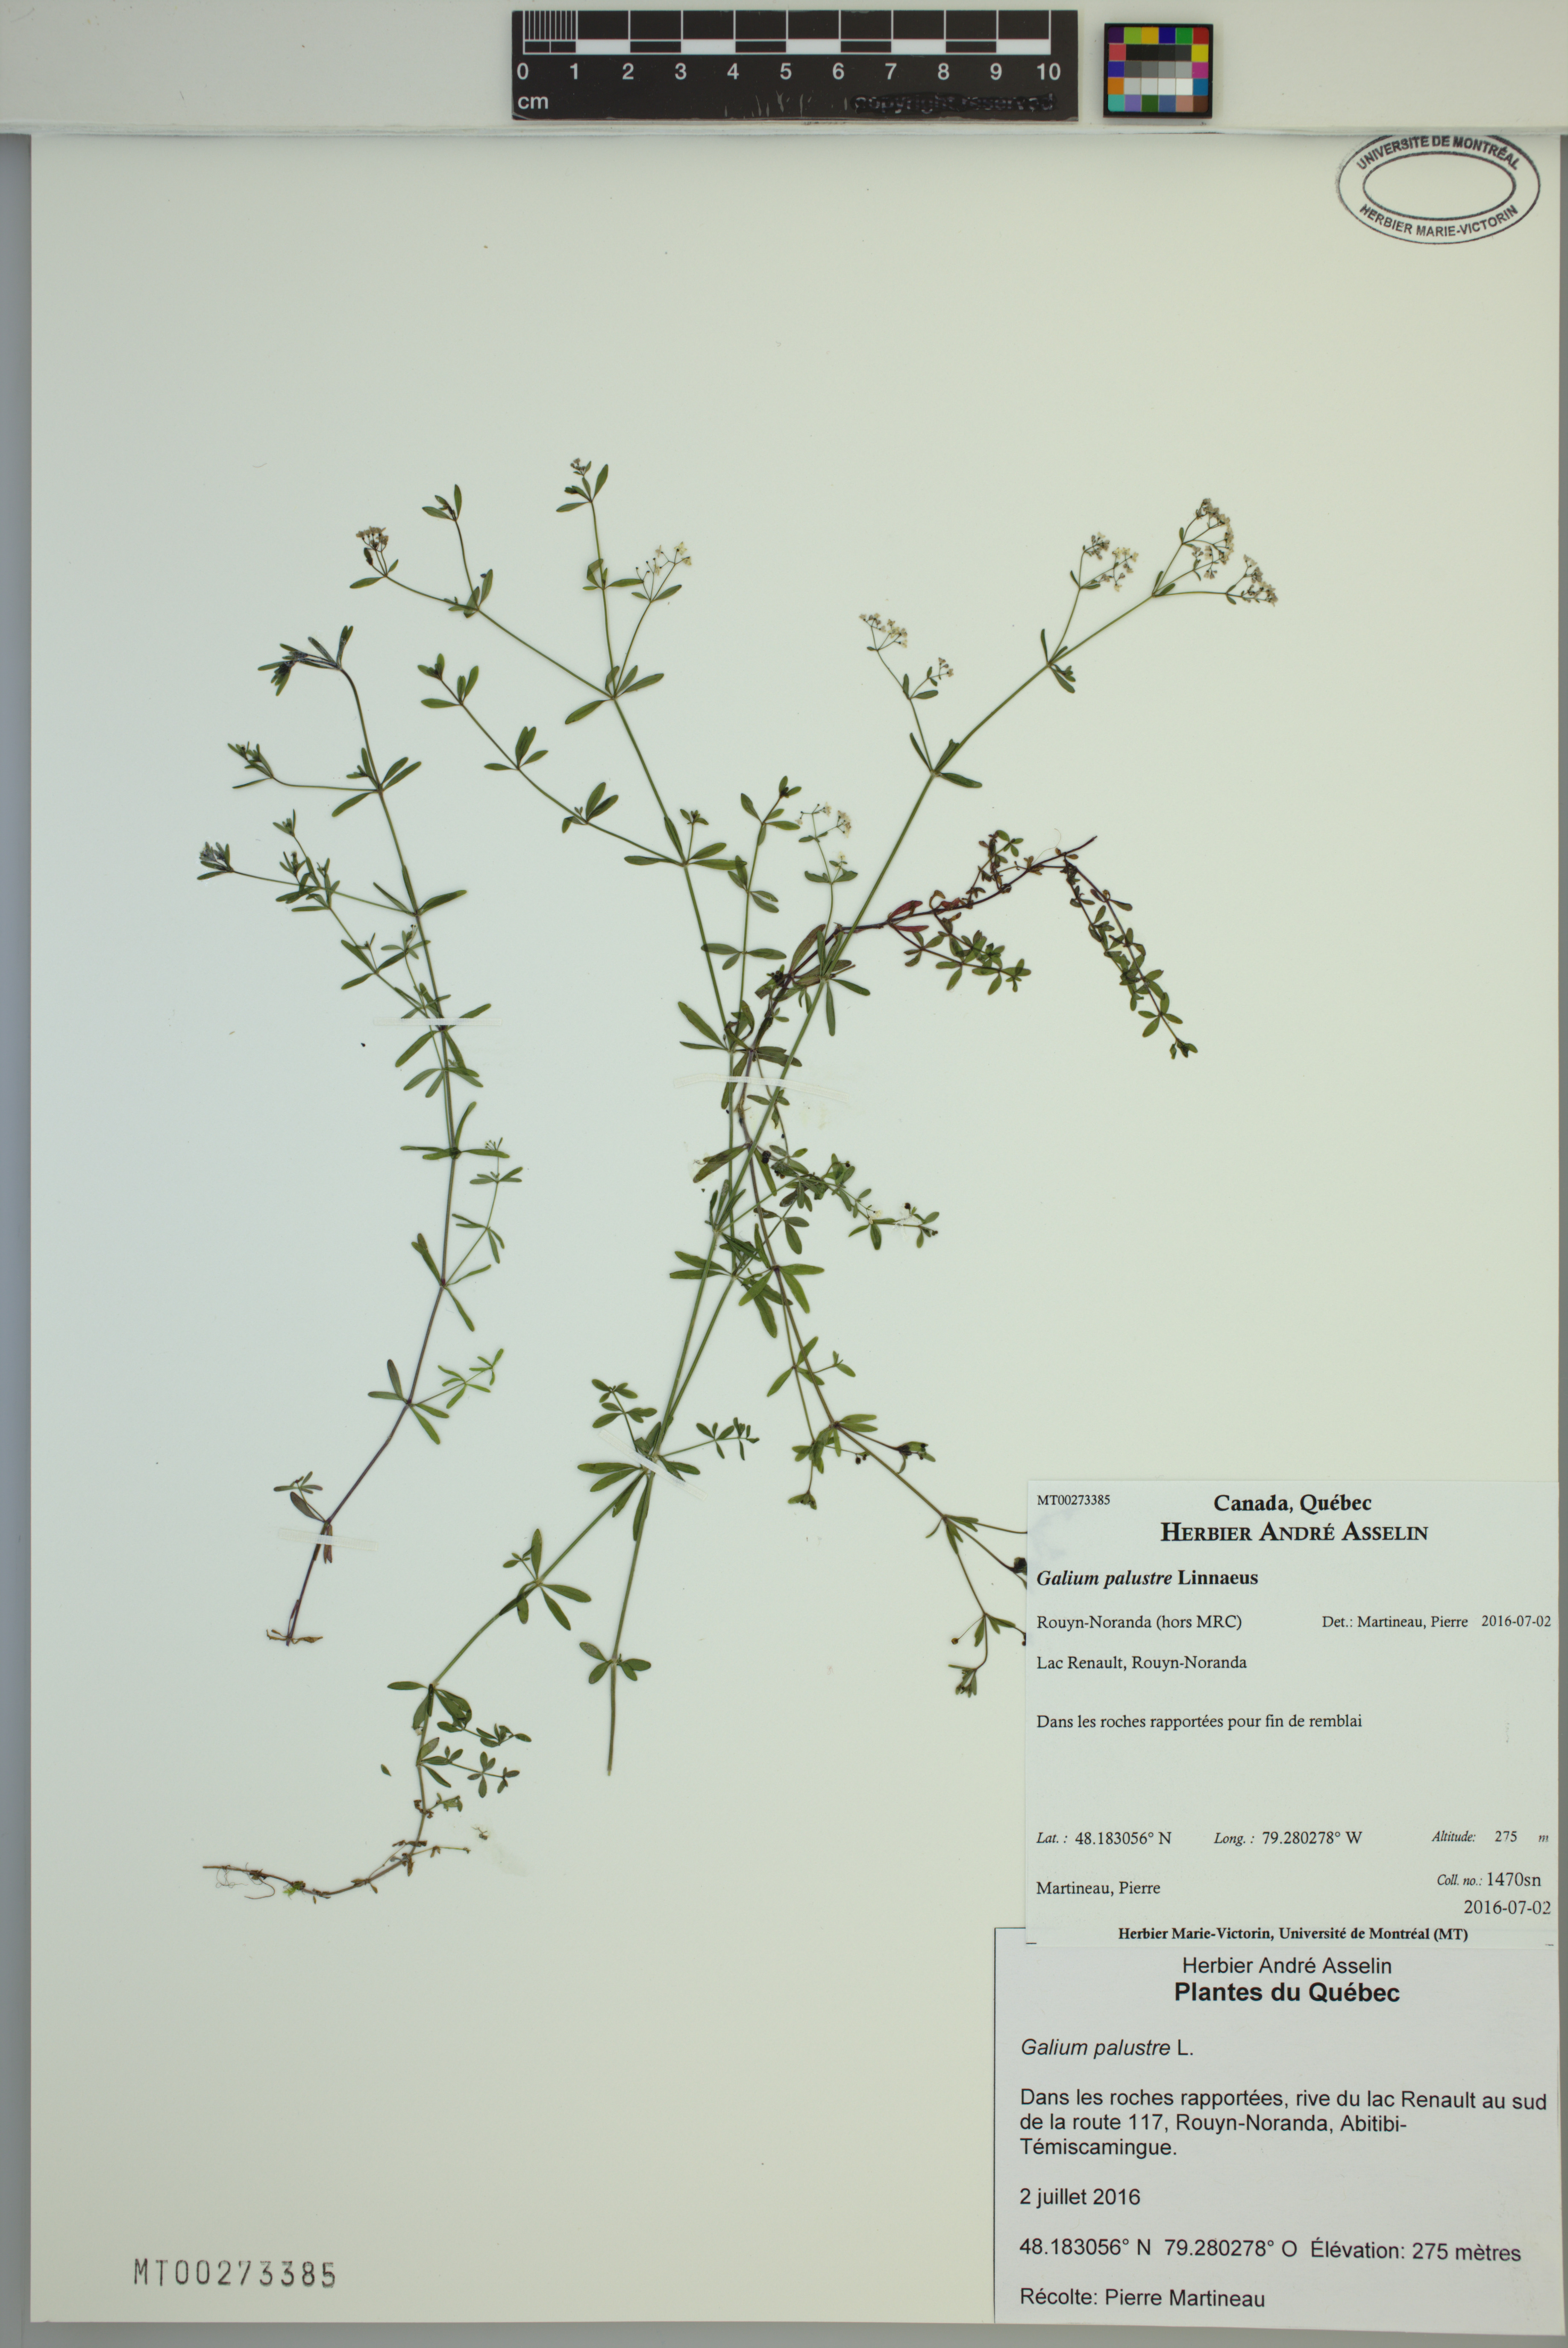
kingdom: Plantae
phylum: Tracheophyta
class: Magnoliopsida
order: Gentianales
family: Rubiaceae
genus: Galium
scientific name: Galium palustre
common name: Common marsh-bedstraw
